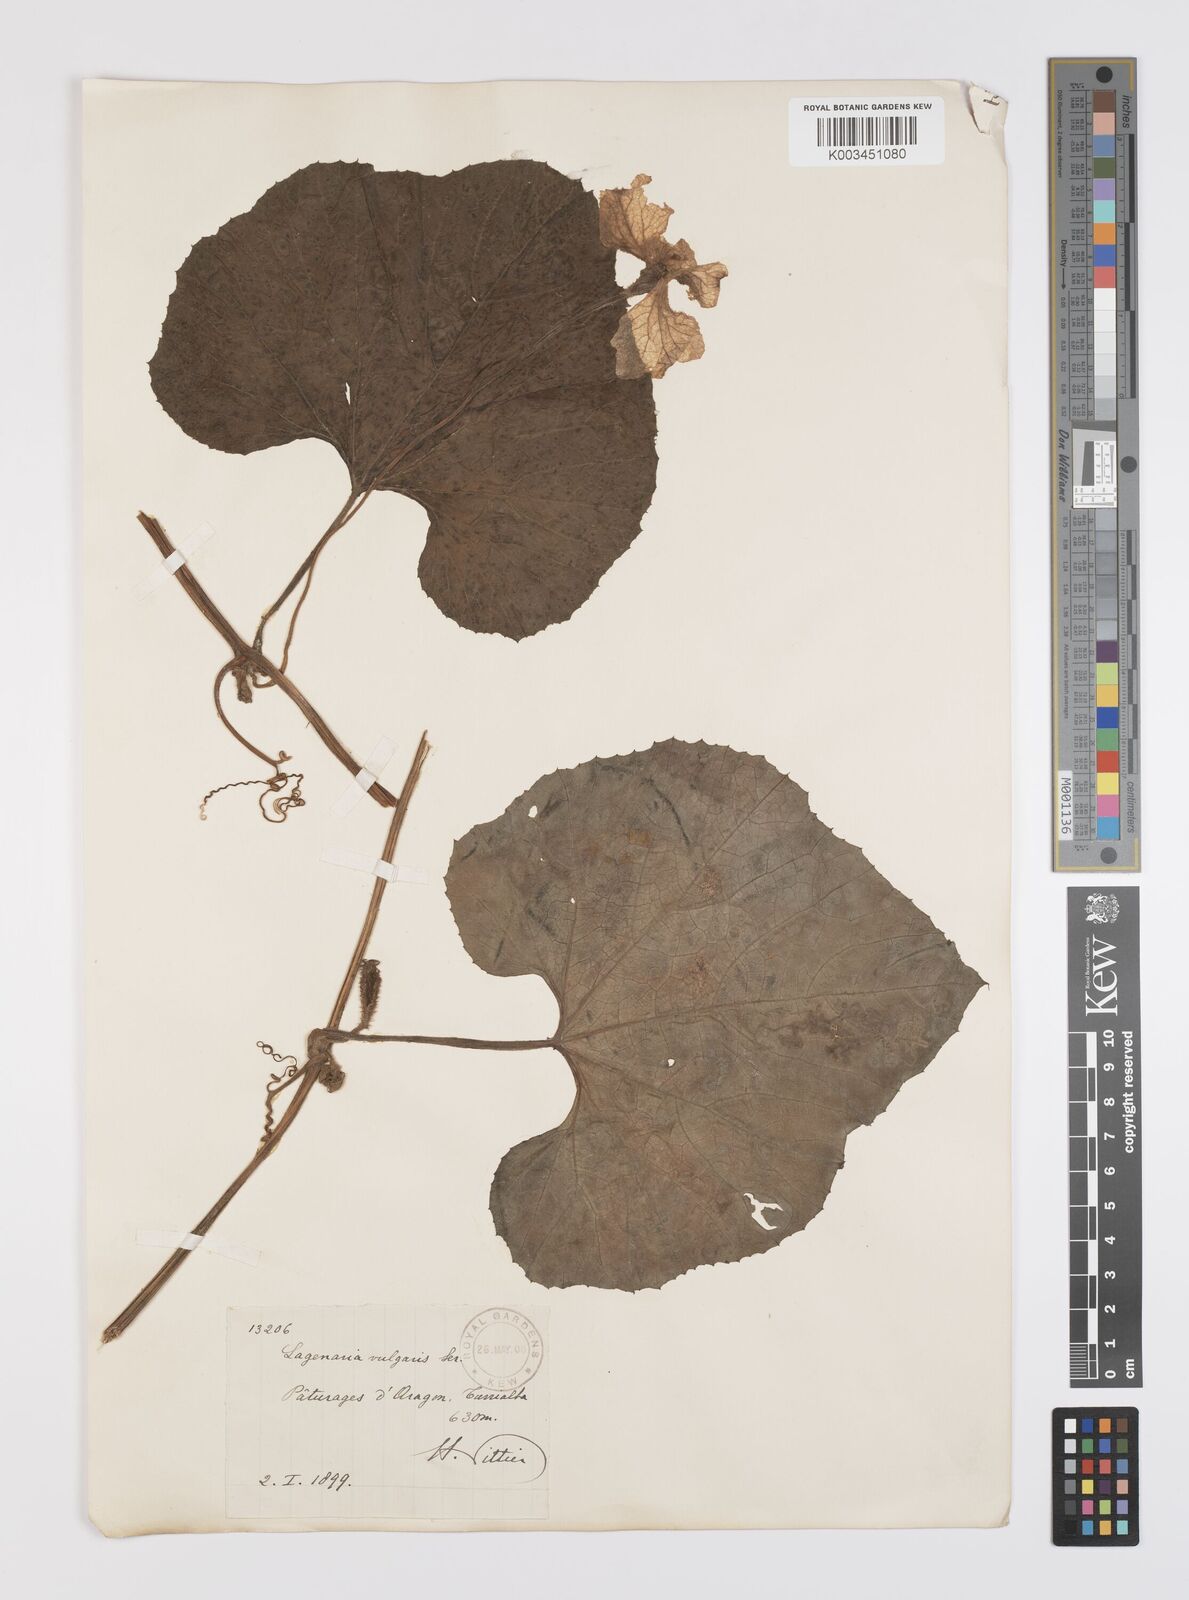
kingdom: Plantae
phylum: Tracheophyta
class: Magnoliopsida
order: Cucurbitales
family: Cucurbitaceae
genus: Lagenaria
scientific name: Lagenaria siceraria
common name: Bottle gourd
